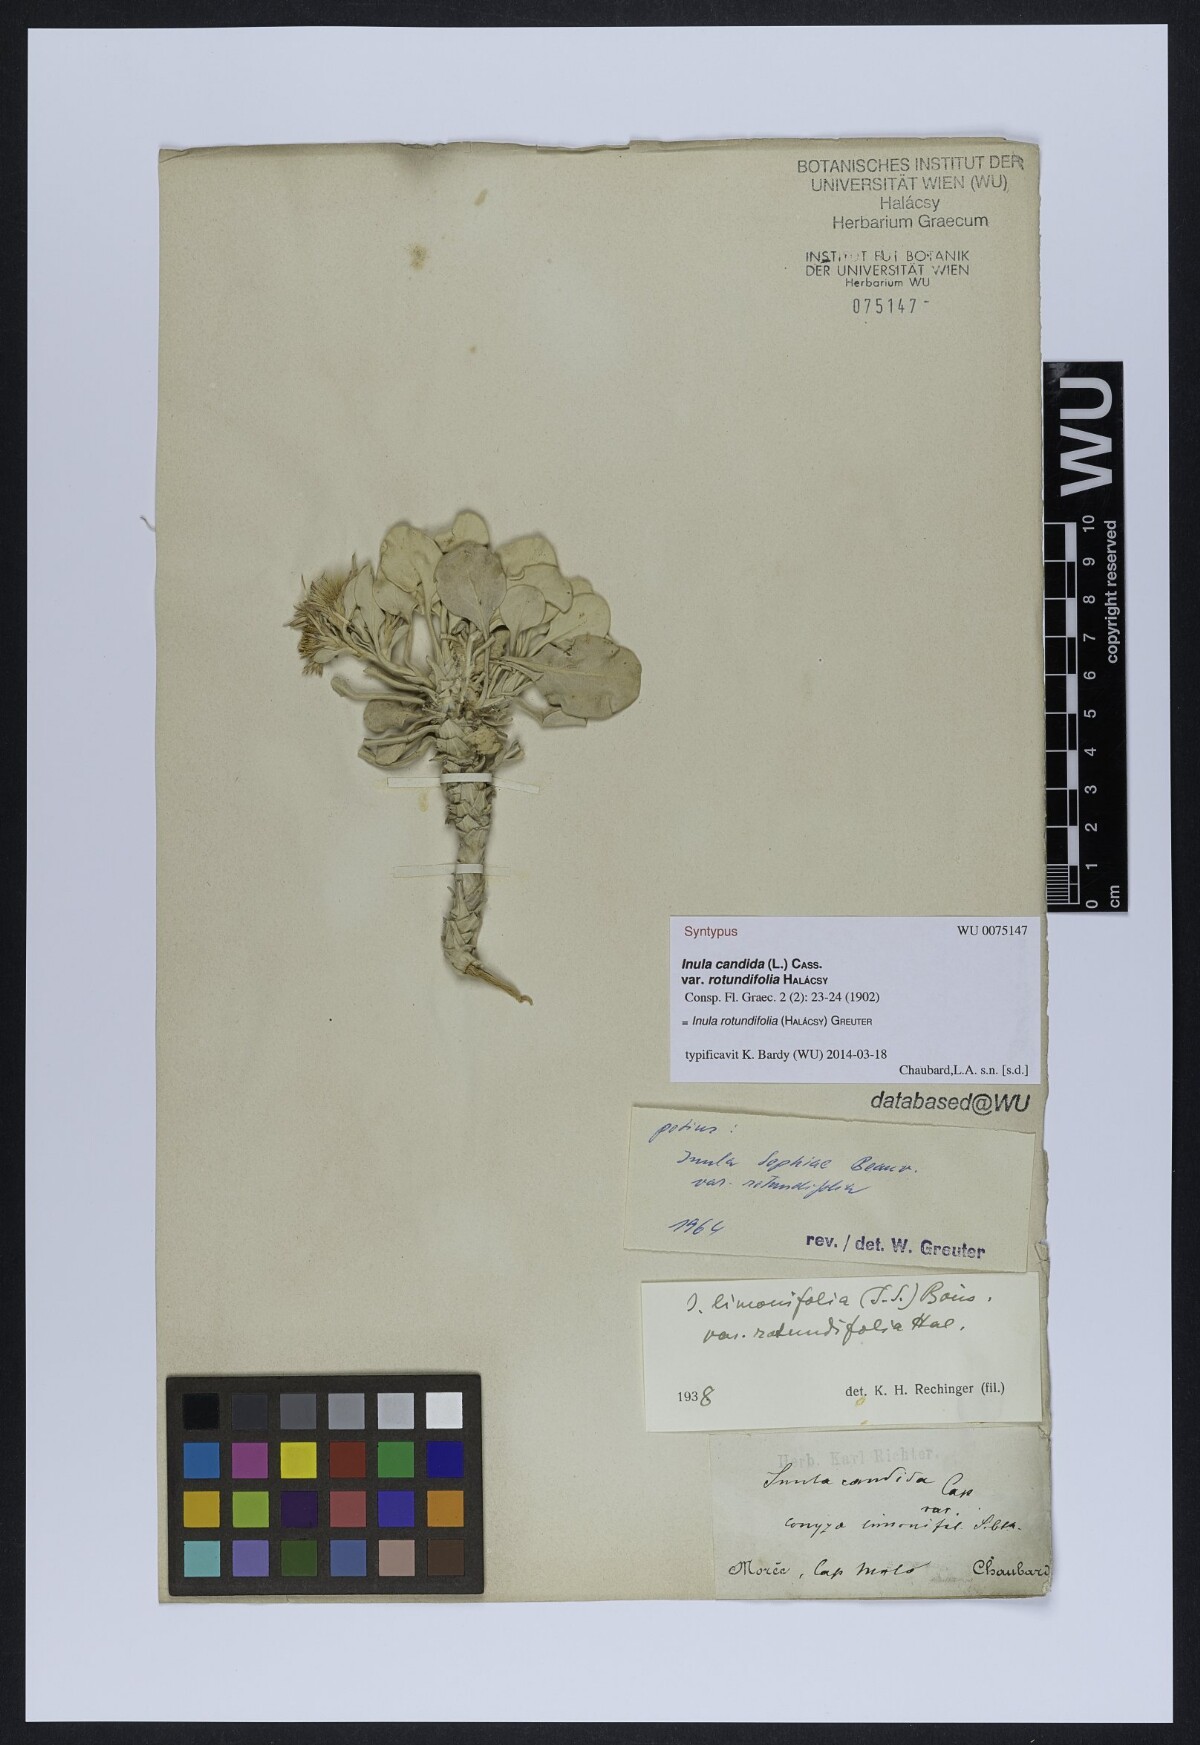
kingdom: Plantae
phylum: Tracheophyta
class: Magnoliopsida
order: Asterales
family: Asteraceae
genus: Inula
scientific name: Inula candida
